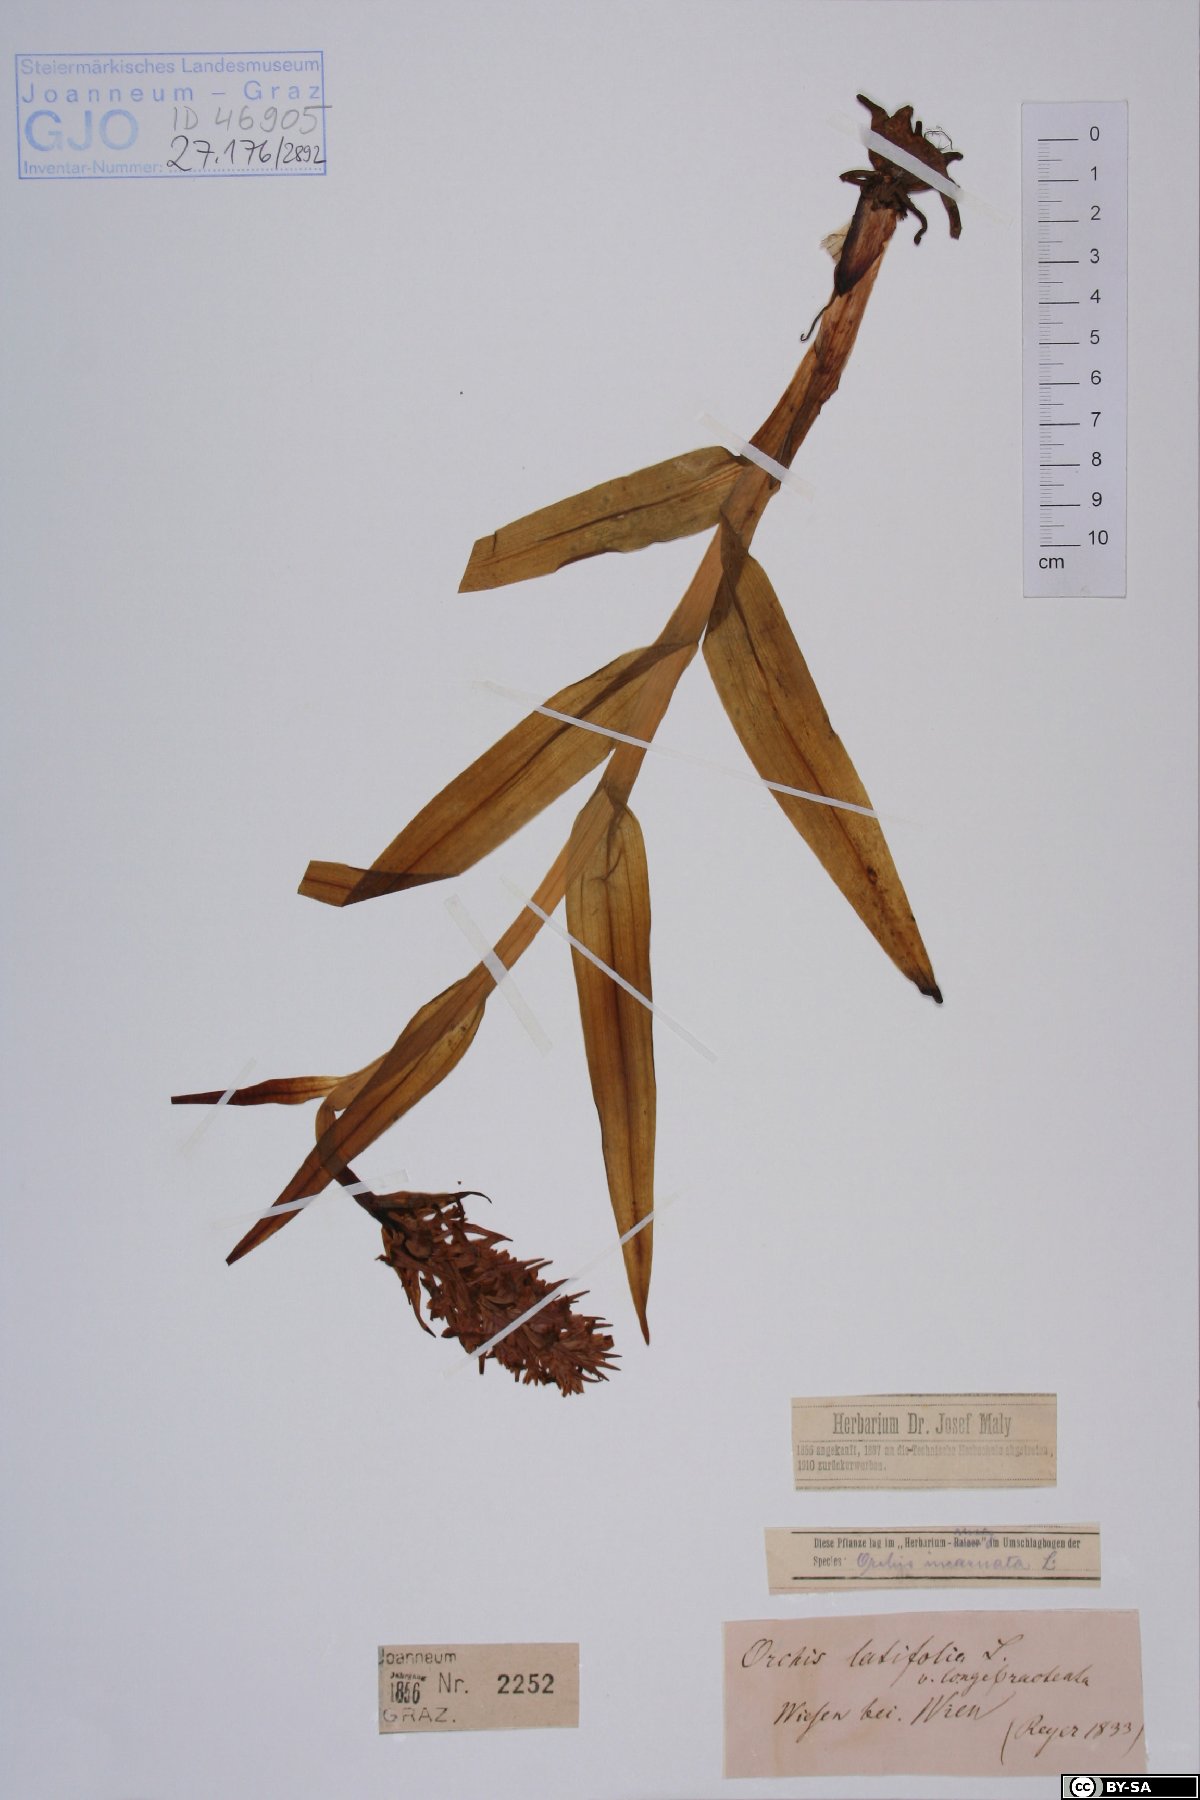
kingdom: Plantae
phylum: Tracheophyta
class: Liliopsida
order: Asparagales
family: Orchidaceae
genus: Dactylorhiza
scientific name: Dactylorhiza incarnata
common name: Early marsh-orchid
